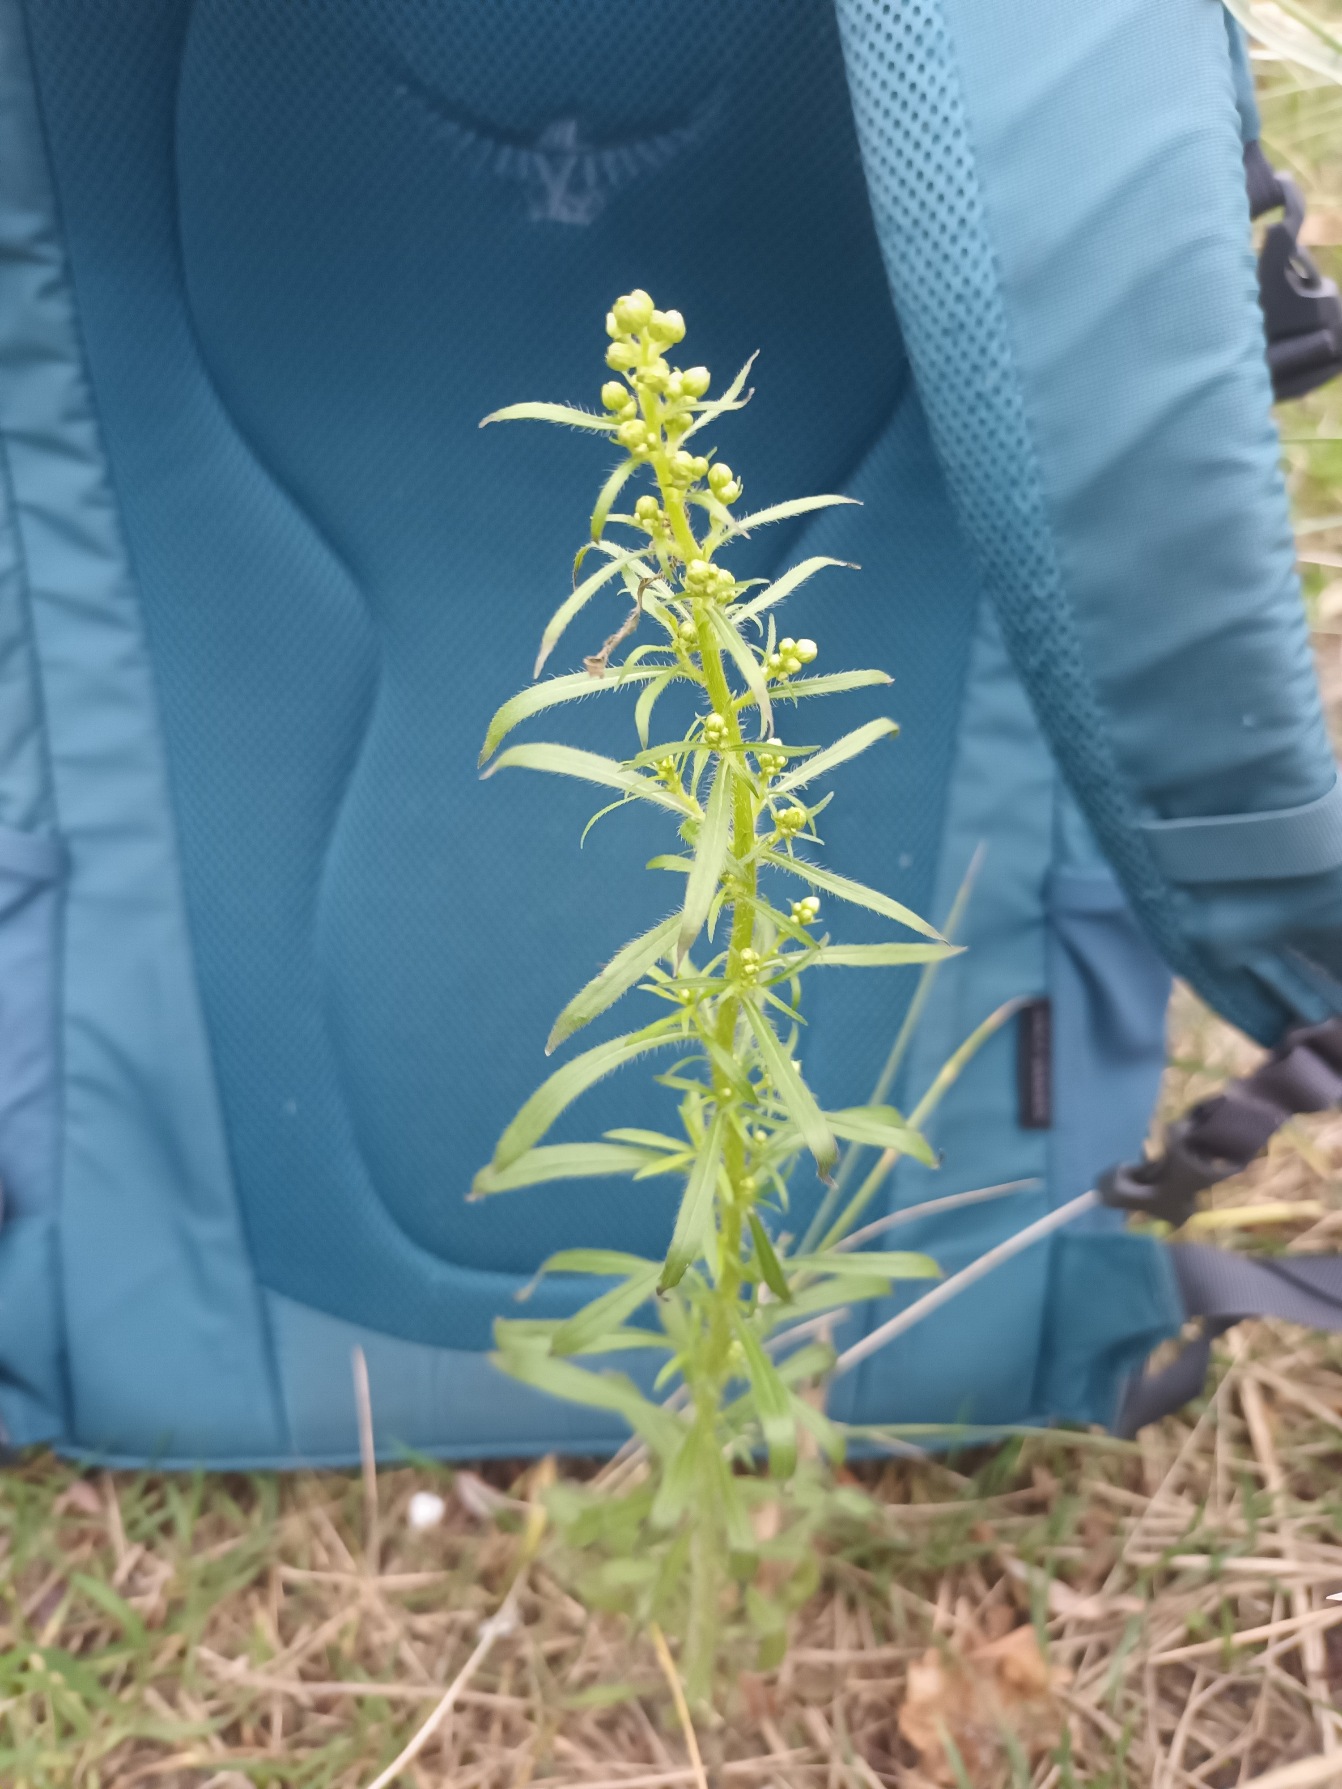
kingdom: Plantae
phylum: Tracheophyta
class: Magnoliopsida
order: Asterales
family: Asteraceae
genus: Erigeron
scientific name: Erigeron canadensis
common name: Kanadisk bakkestjerne
